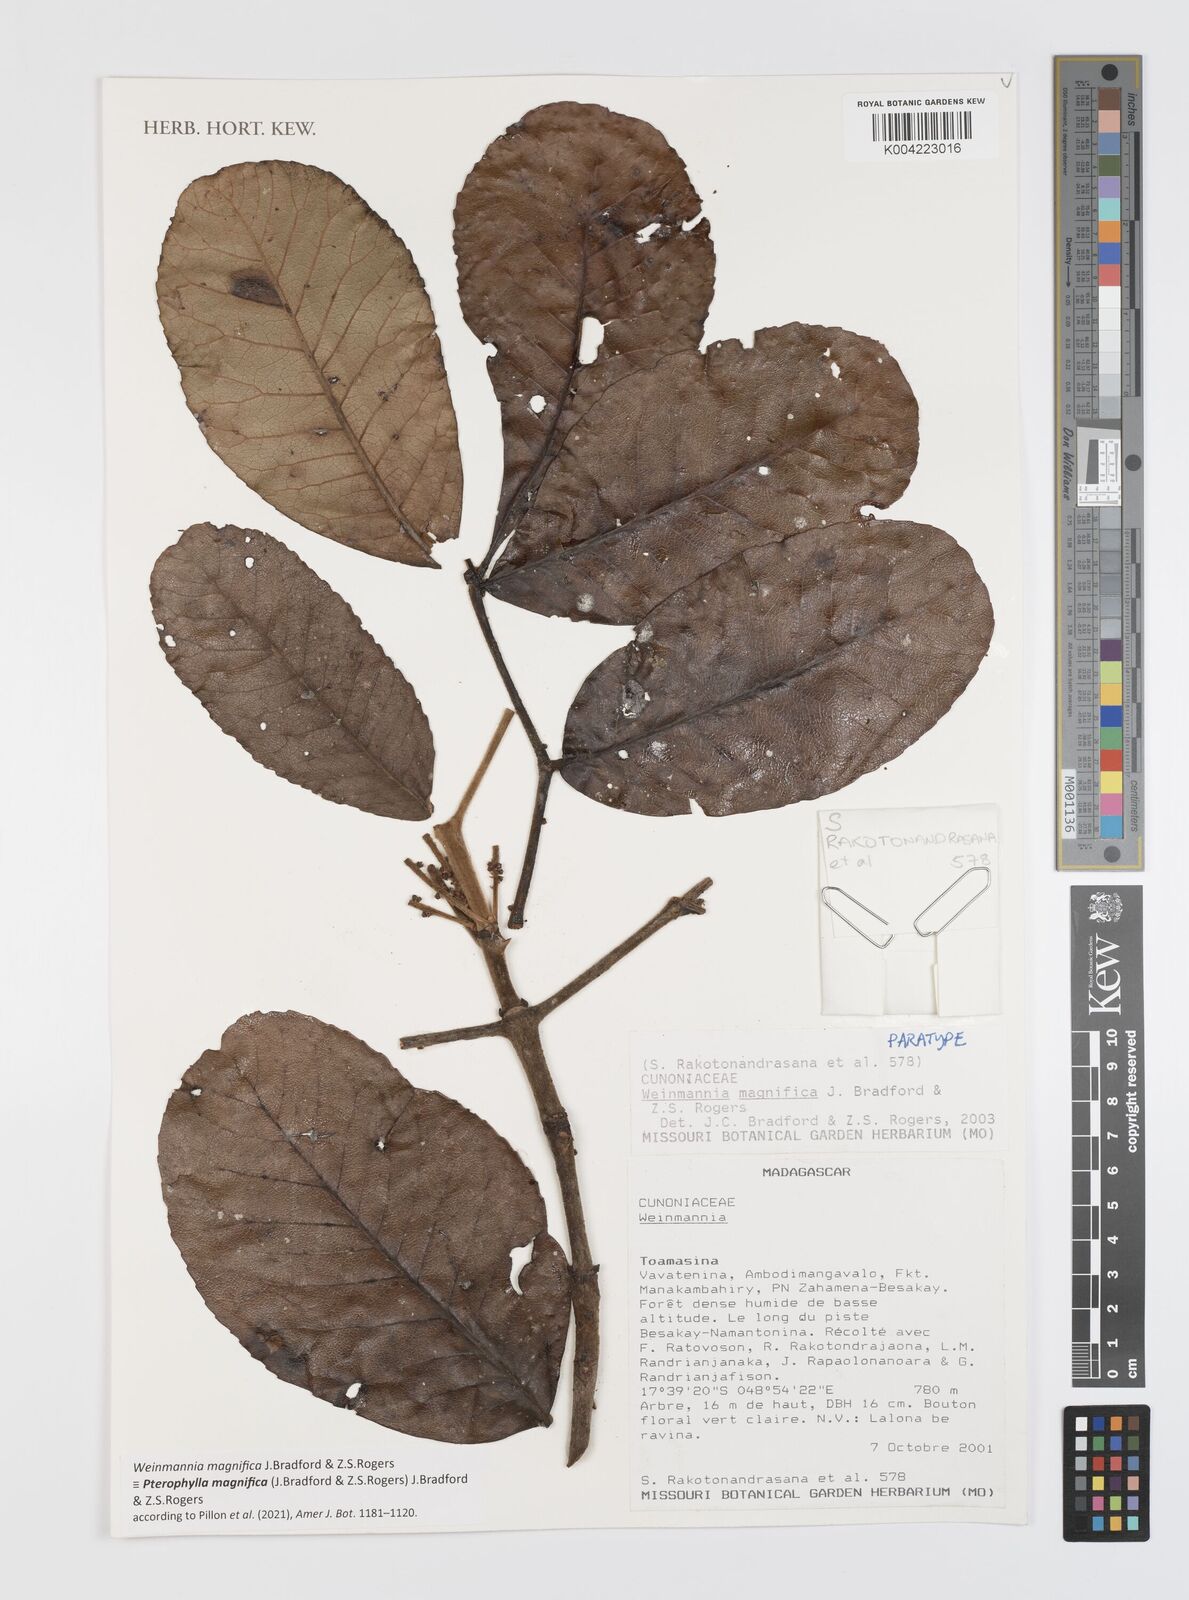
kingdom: Plantae
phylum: Tracheophyta
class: Magnoliopsida
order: Oxalidales
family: Cunoniaceae
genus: Pterophylla
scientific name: Pterophylla magnifica
